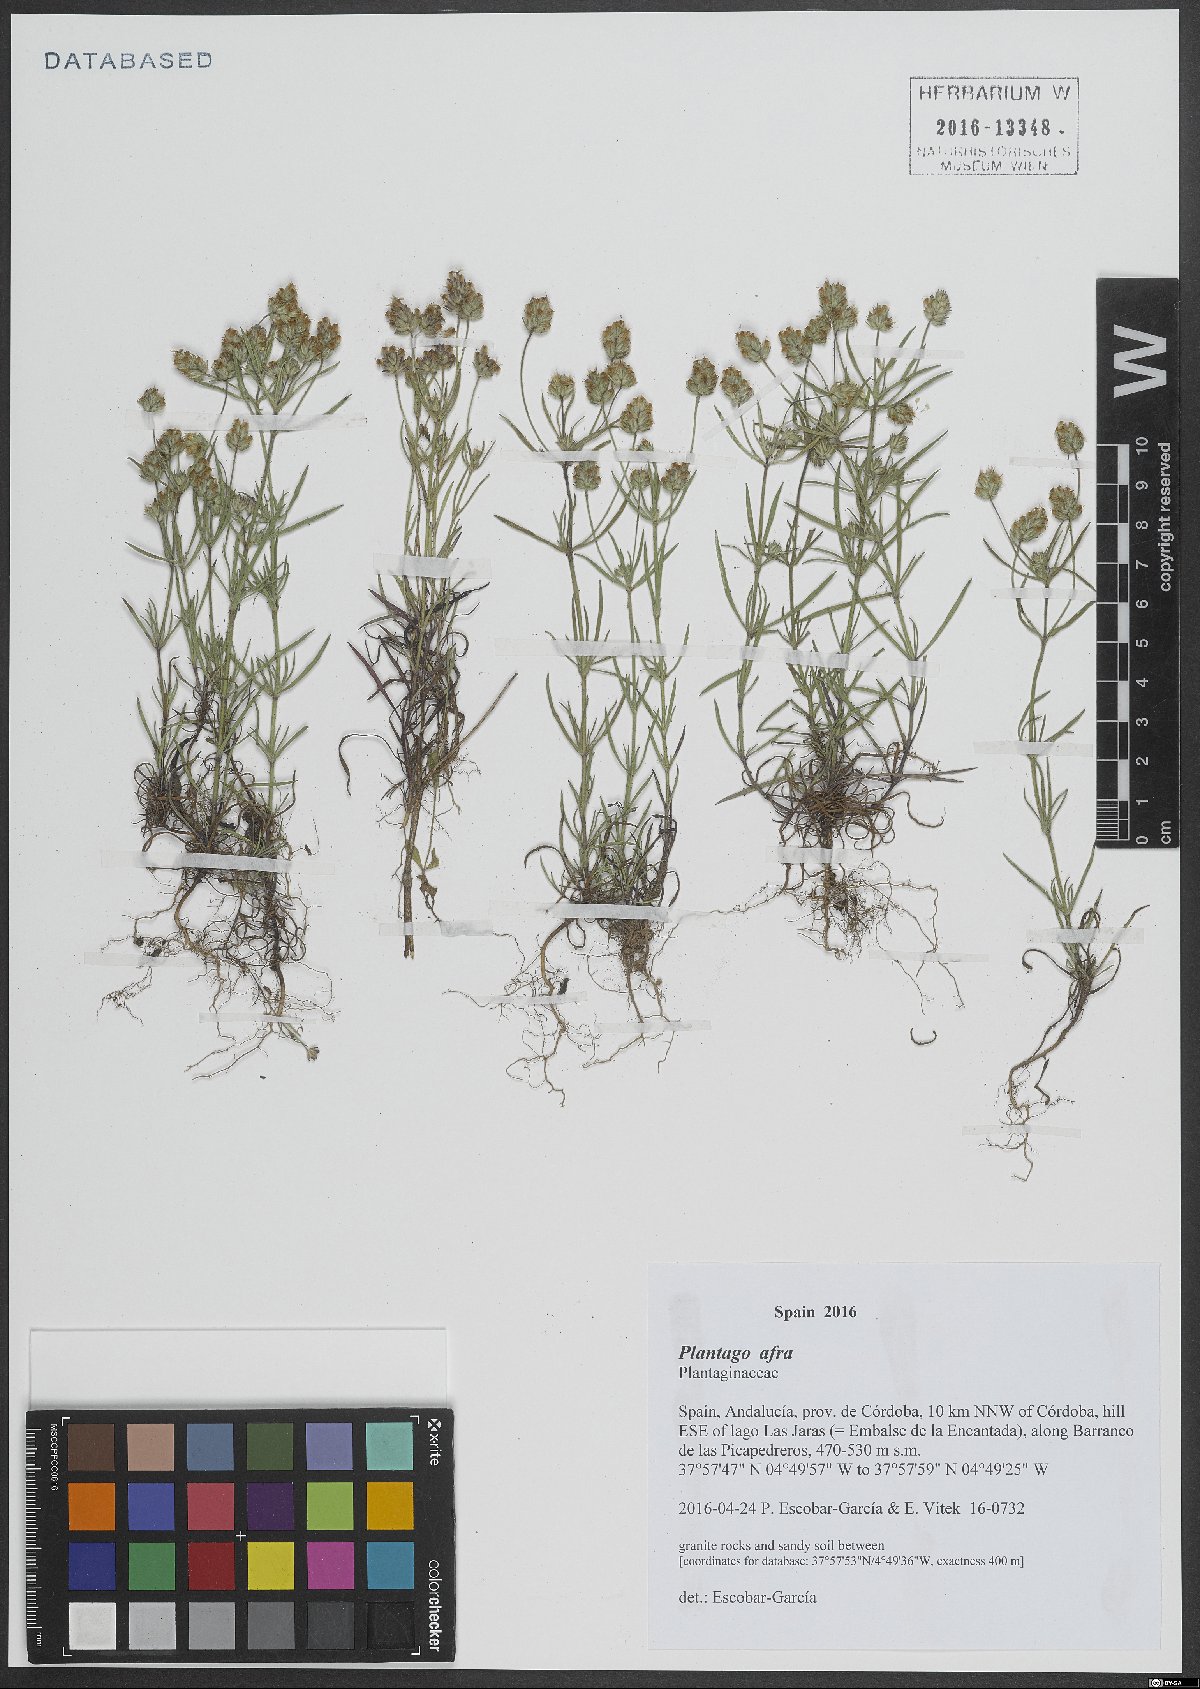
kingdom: Plantae
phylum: Tracheophyta
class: Magnoliopsida
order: Lamiales
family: Plantaginaceae
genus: Plantago
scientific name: Plantago afra
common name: Glandular plantain
